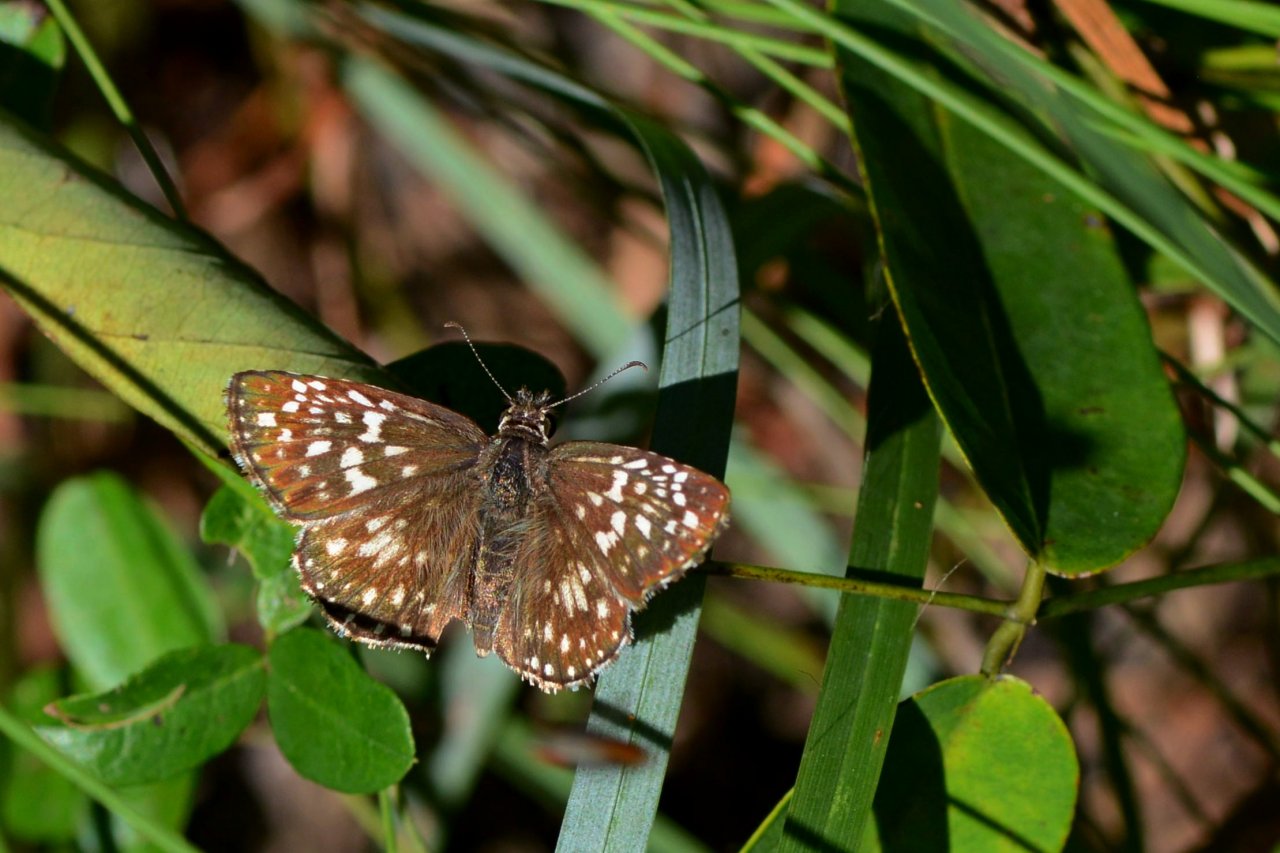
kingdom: Animalia
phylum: Arthropoda
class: Insecta
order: Lepidoptera
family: Hesperiidae
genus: Pyrgus
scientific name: Pyrgus oileus
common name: Tropical Checkered-Skipper
